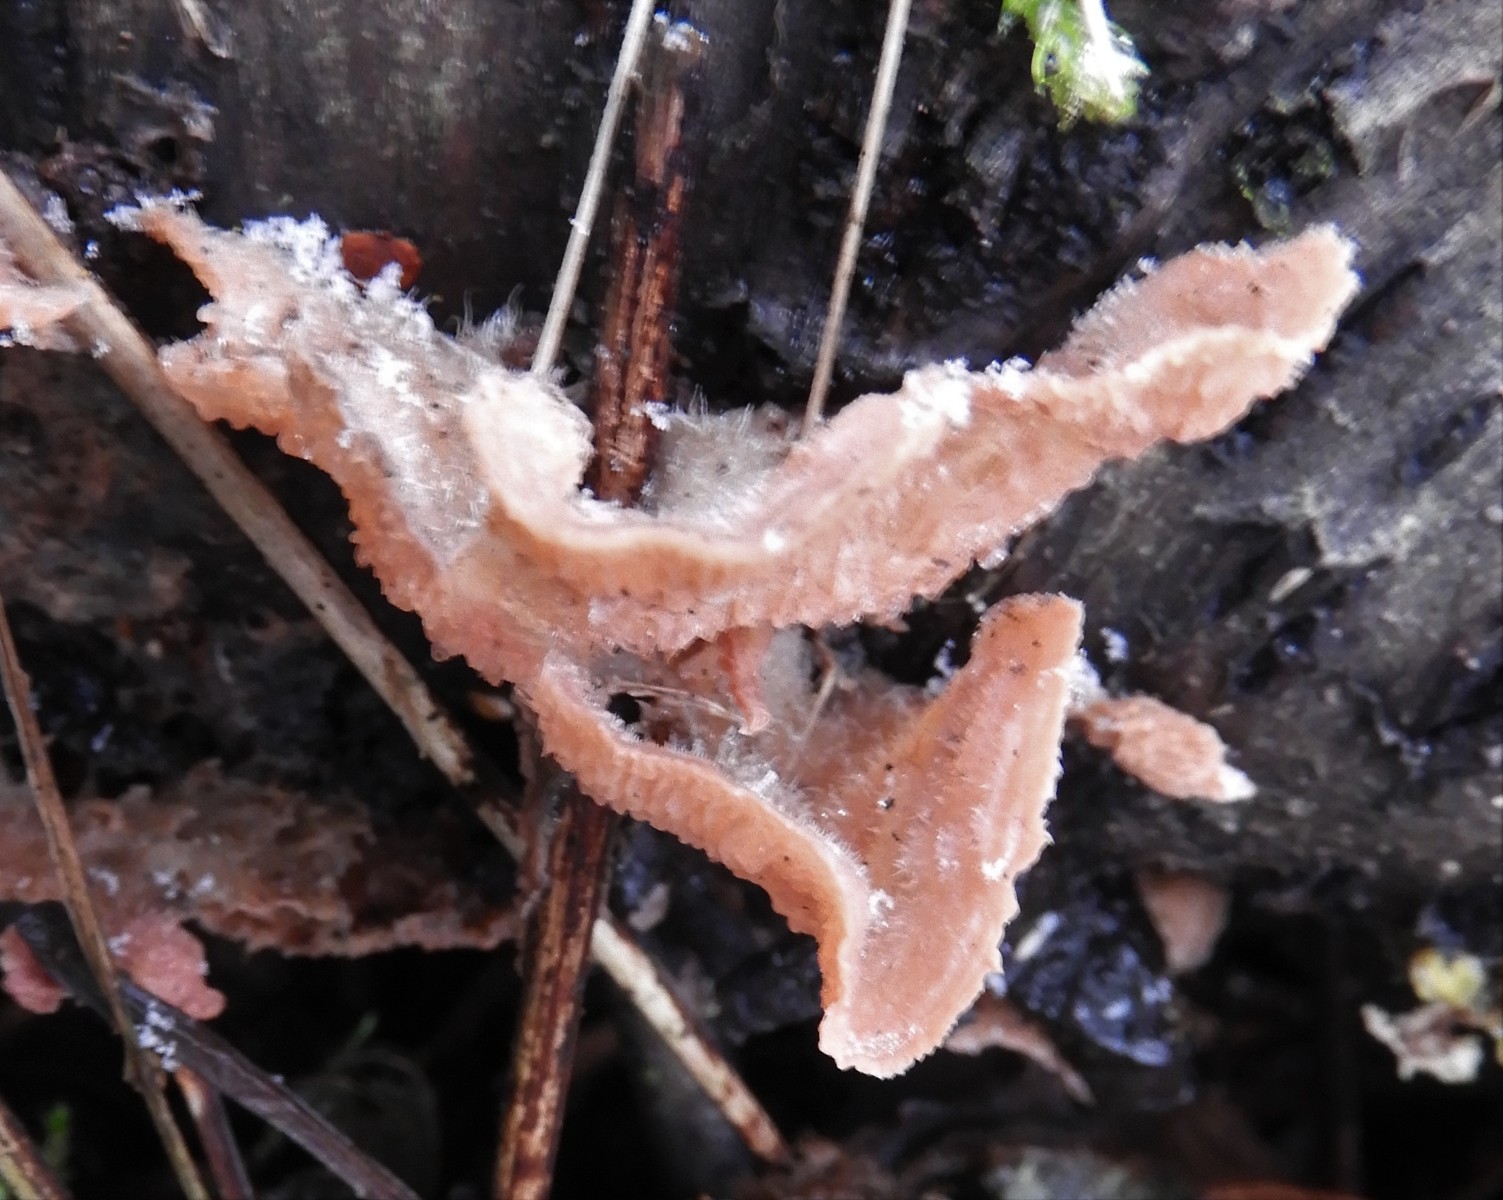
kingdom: Fungi
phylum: Basidiomycota
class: Agaricomycetes
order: Polyporales
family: Meruliaceae
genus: Phlebia
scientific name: Phlebia tremellosa
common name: bævrende åresvamp
